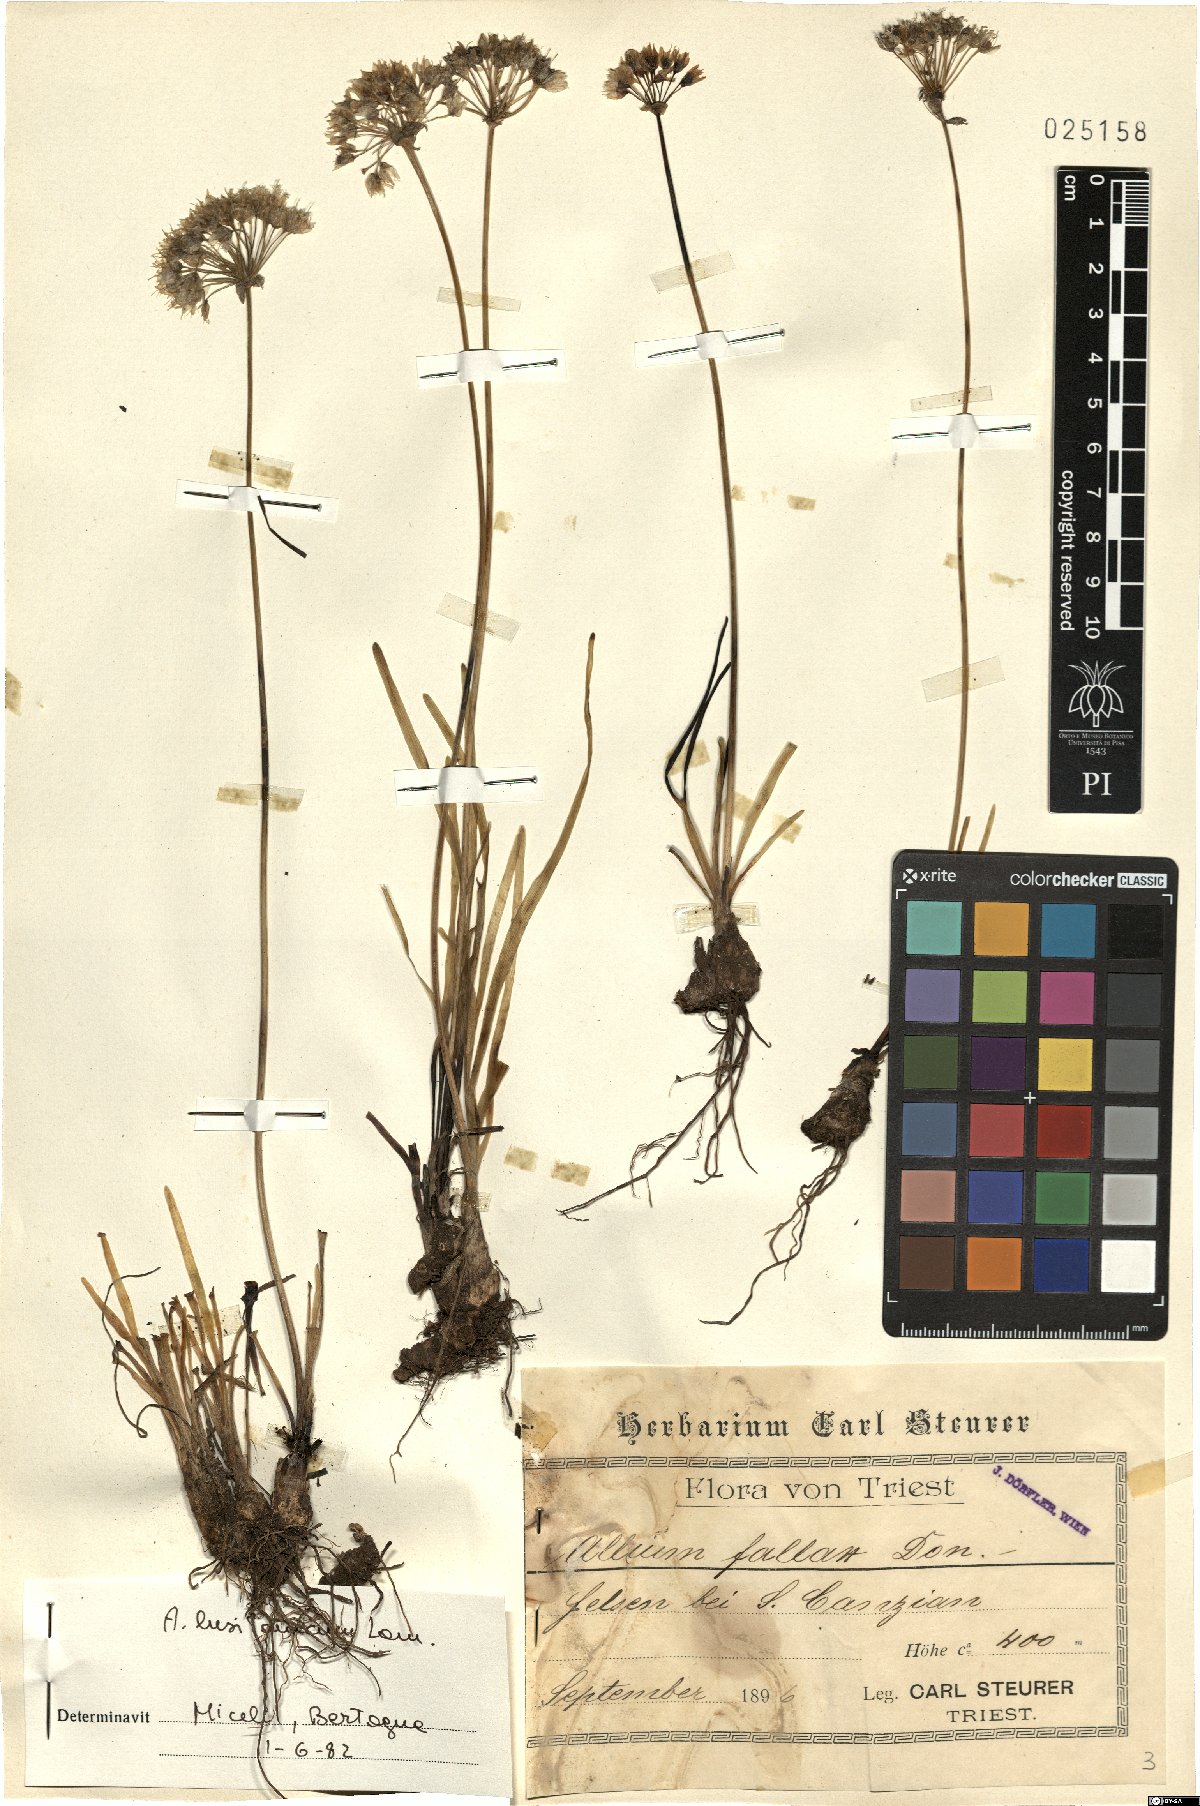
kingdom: Plantae
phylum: Tracheophyta
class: Liliopsida
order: Asparagales
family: Amaryllidaceae
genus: Allium
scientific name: Allium lusitanicum
